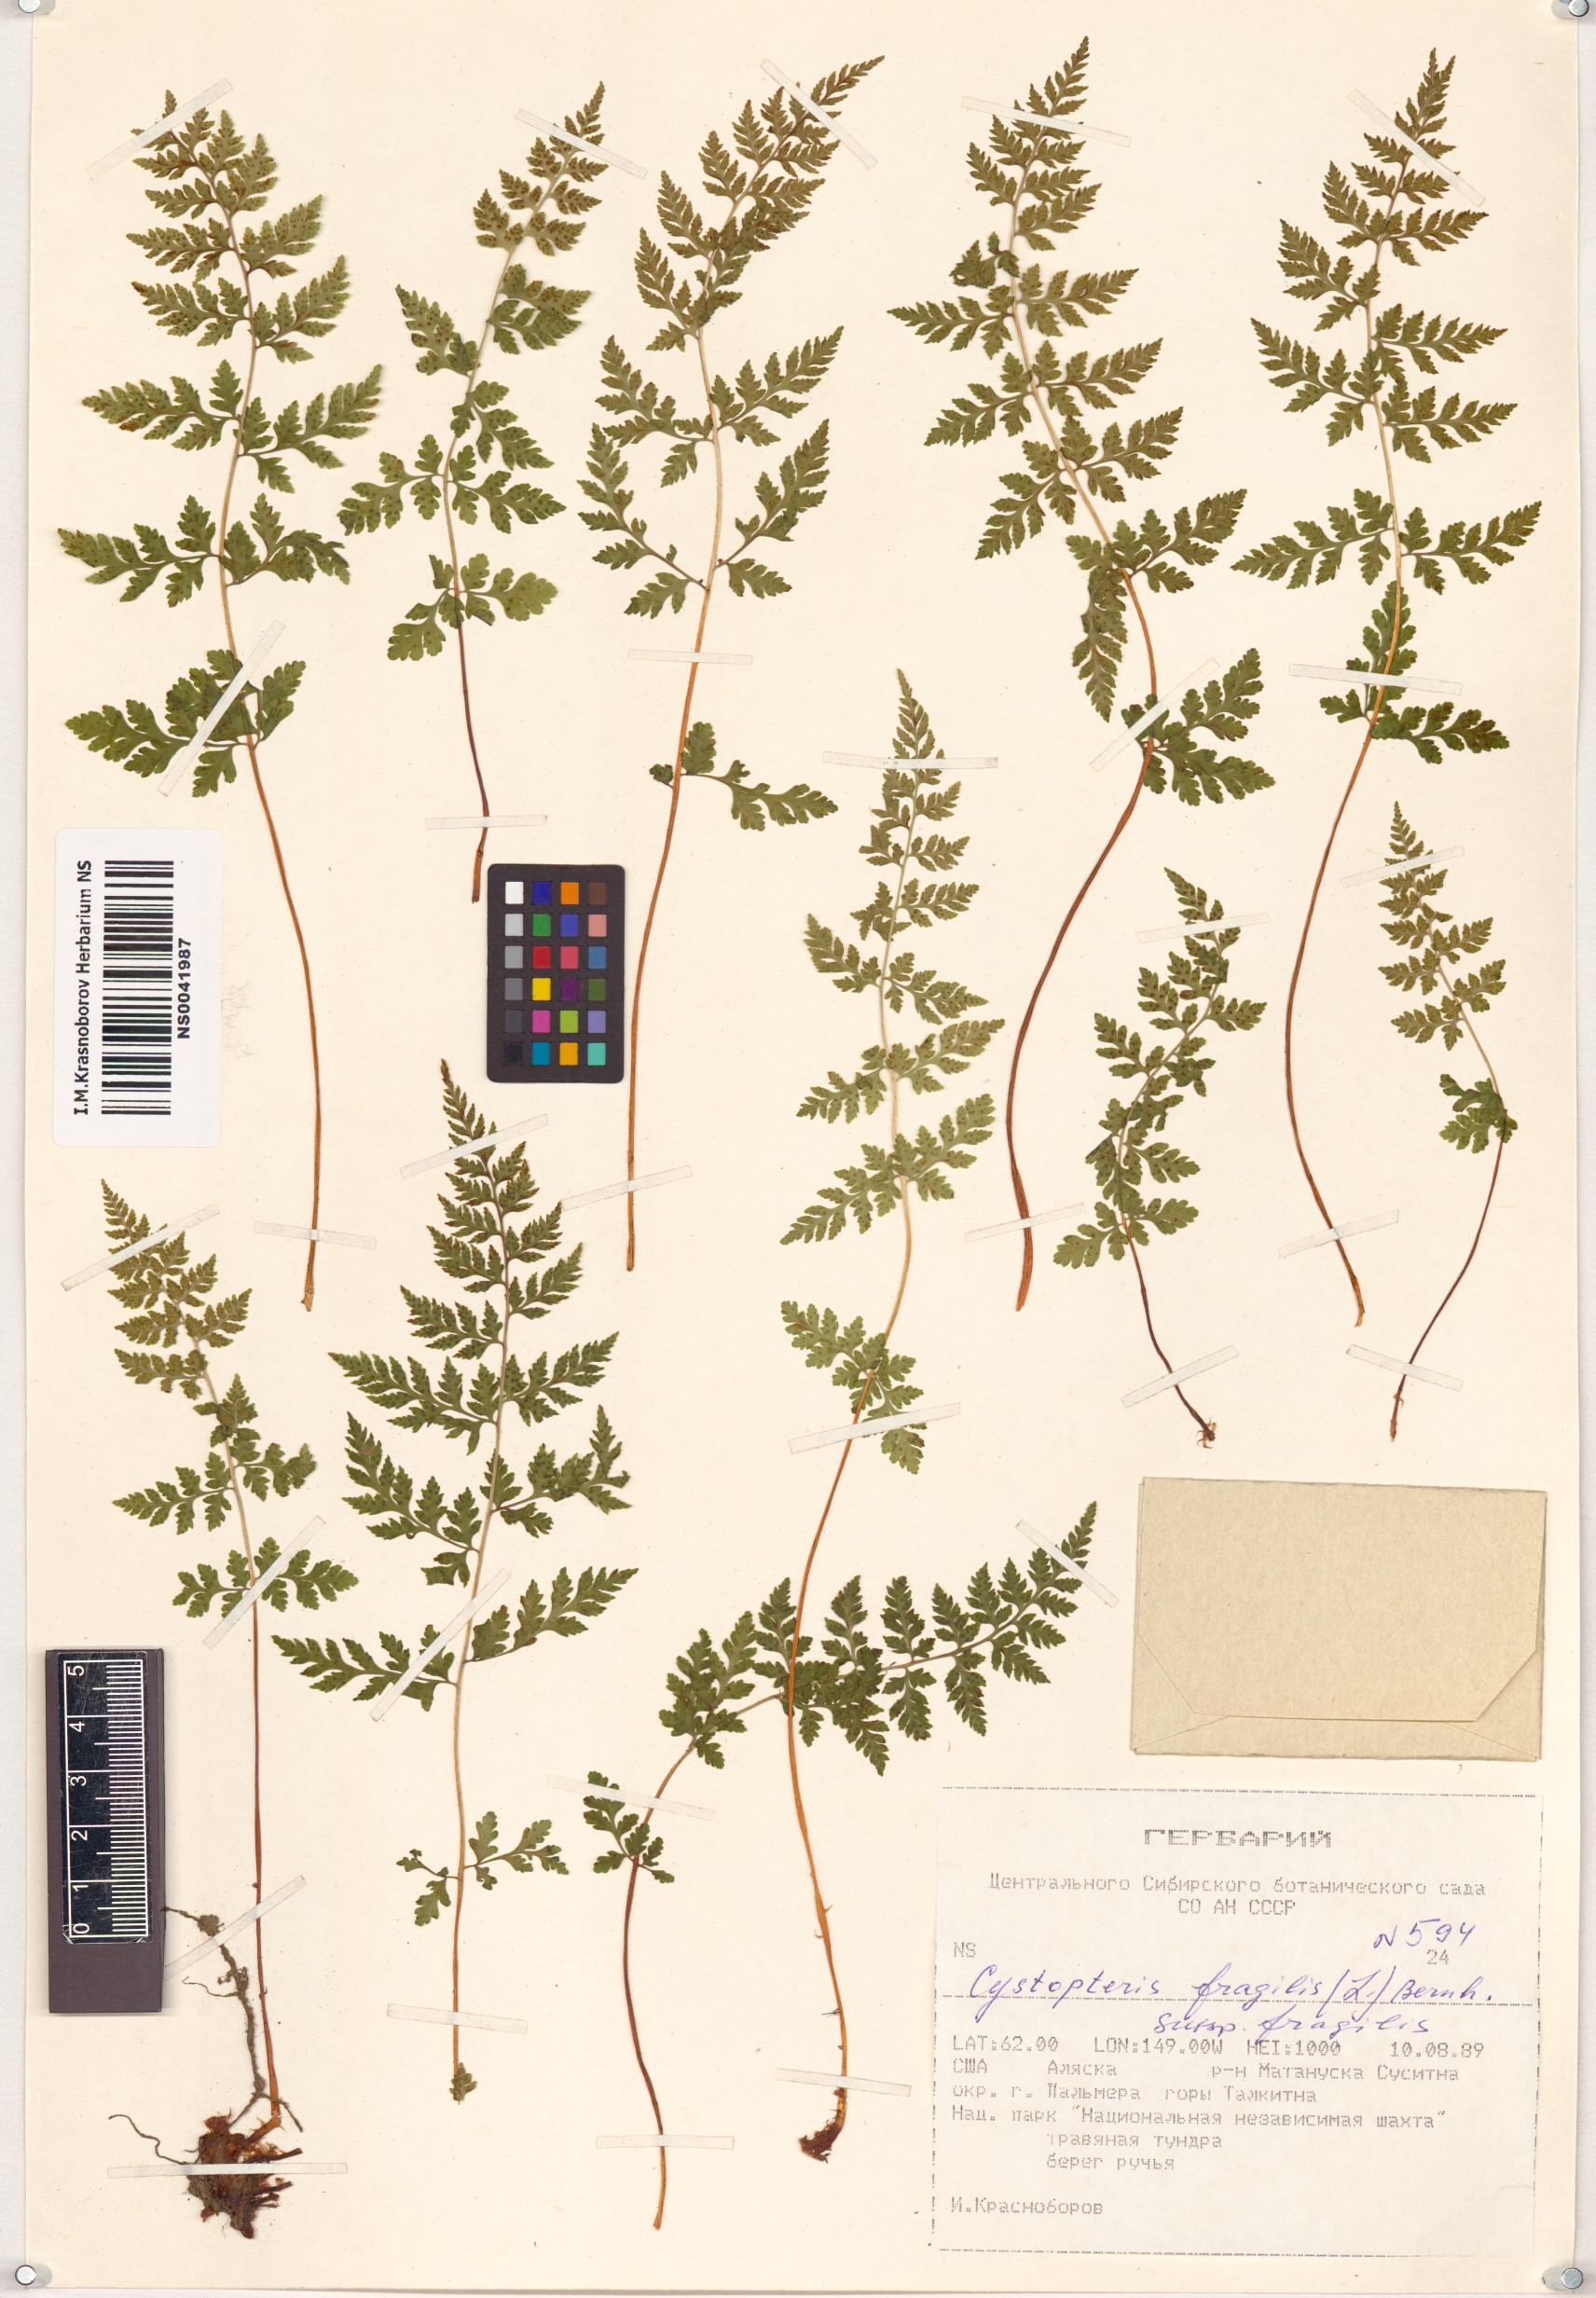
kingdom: Plantae
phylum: Tracheophyta
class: Polypodiopsida
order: Polypodiales
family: Cystopteridaceae
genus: Cystopteris
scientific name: Cystopteris fragilis
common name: Brittle bladder fern
